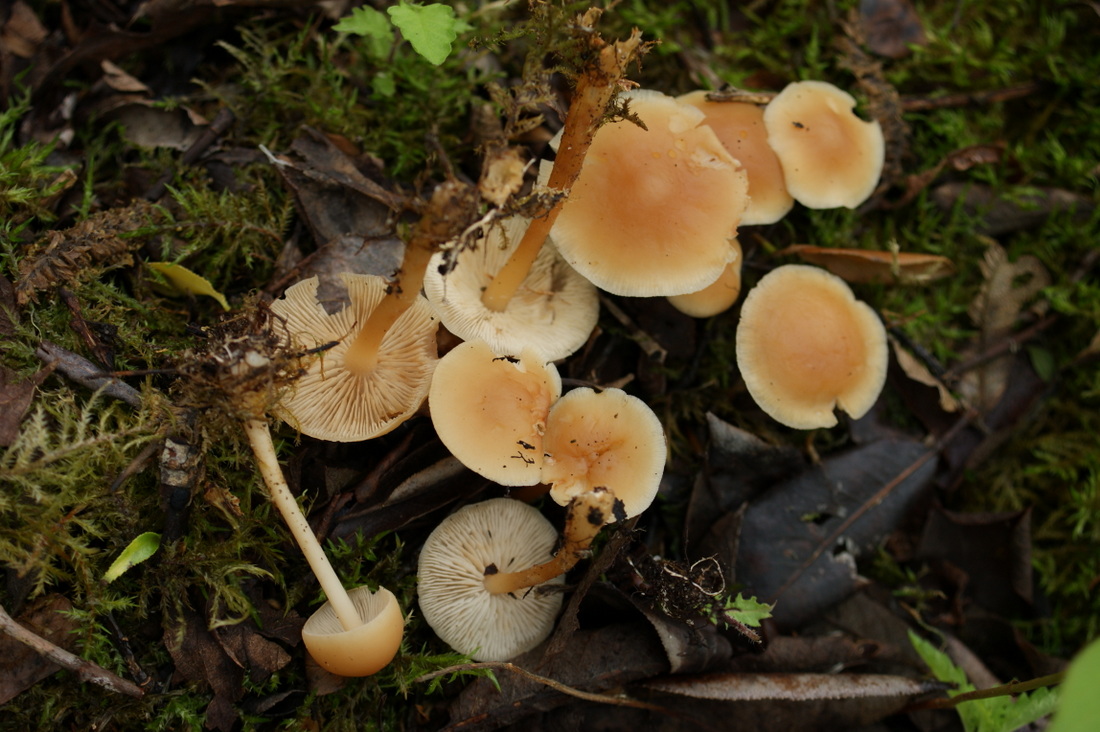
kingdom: Fungi
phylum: Basidiomycota
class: Agaricomycetes
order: Agaricales
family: Omphalotaceae
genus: Gymnopus
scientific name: Gymnopus aquosus
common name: bleg fladhat
